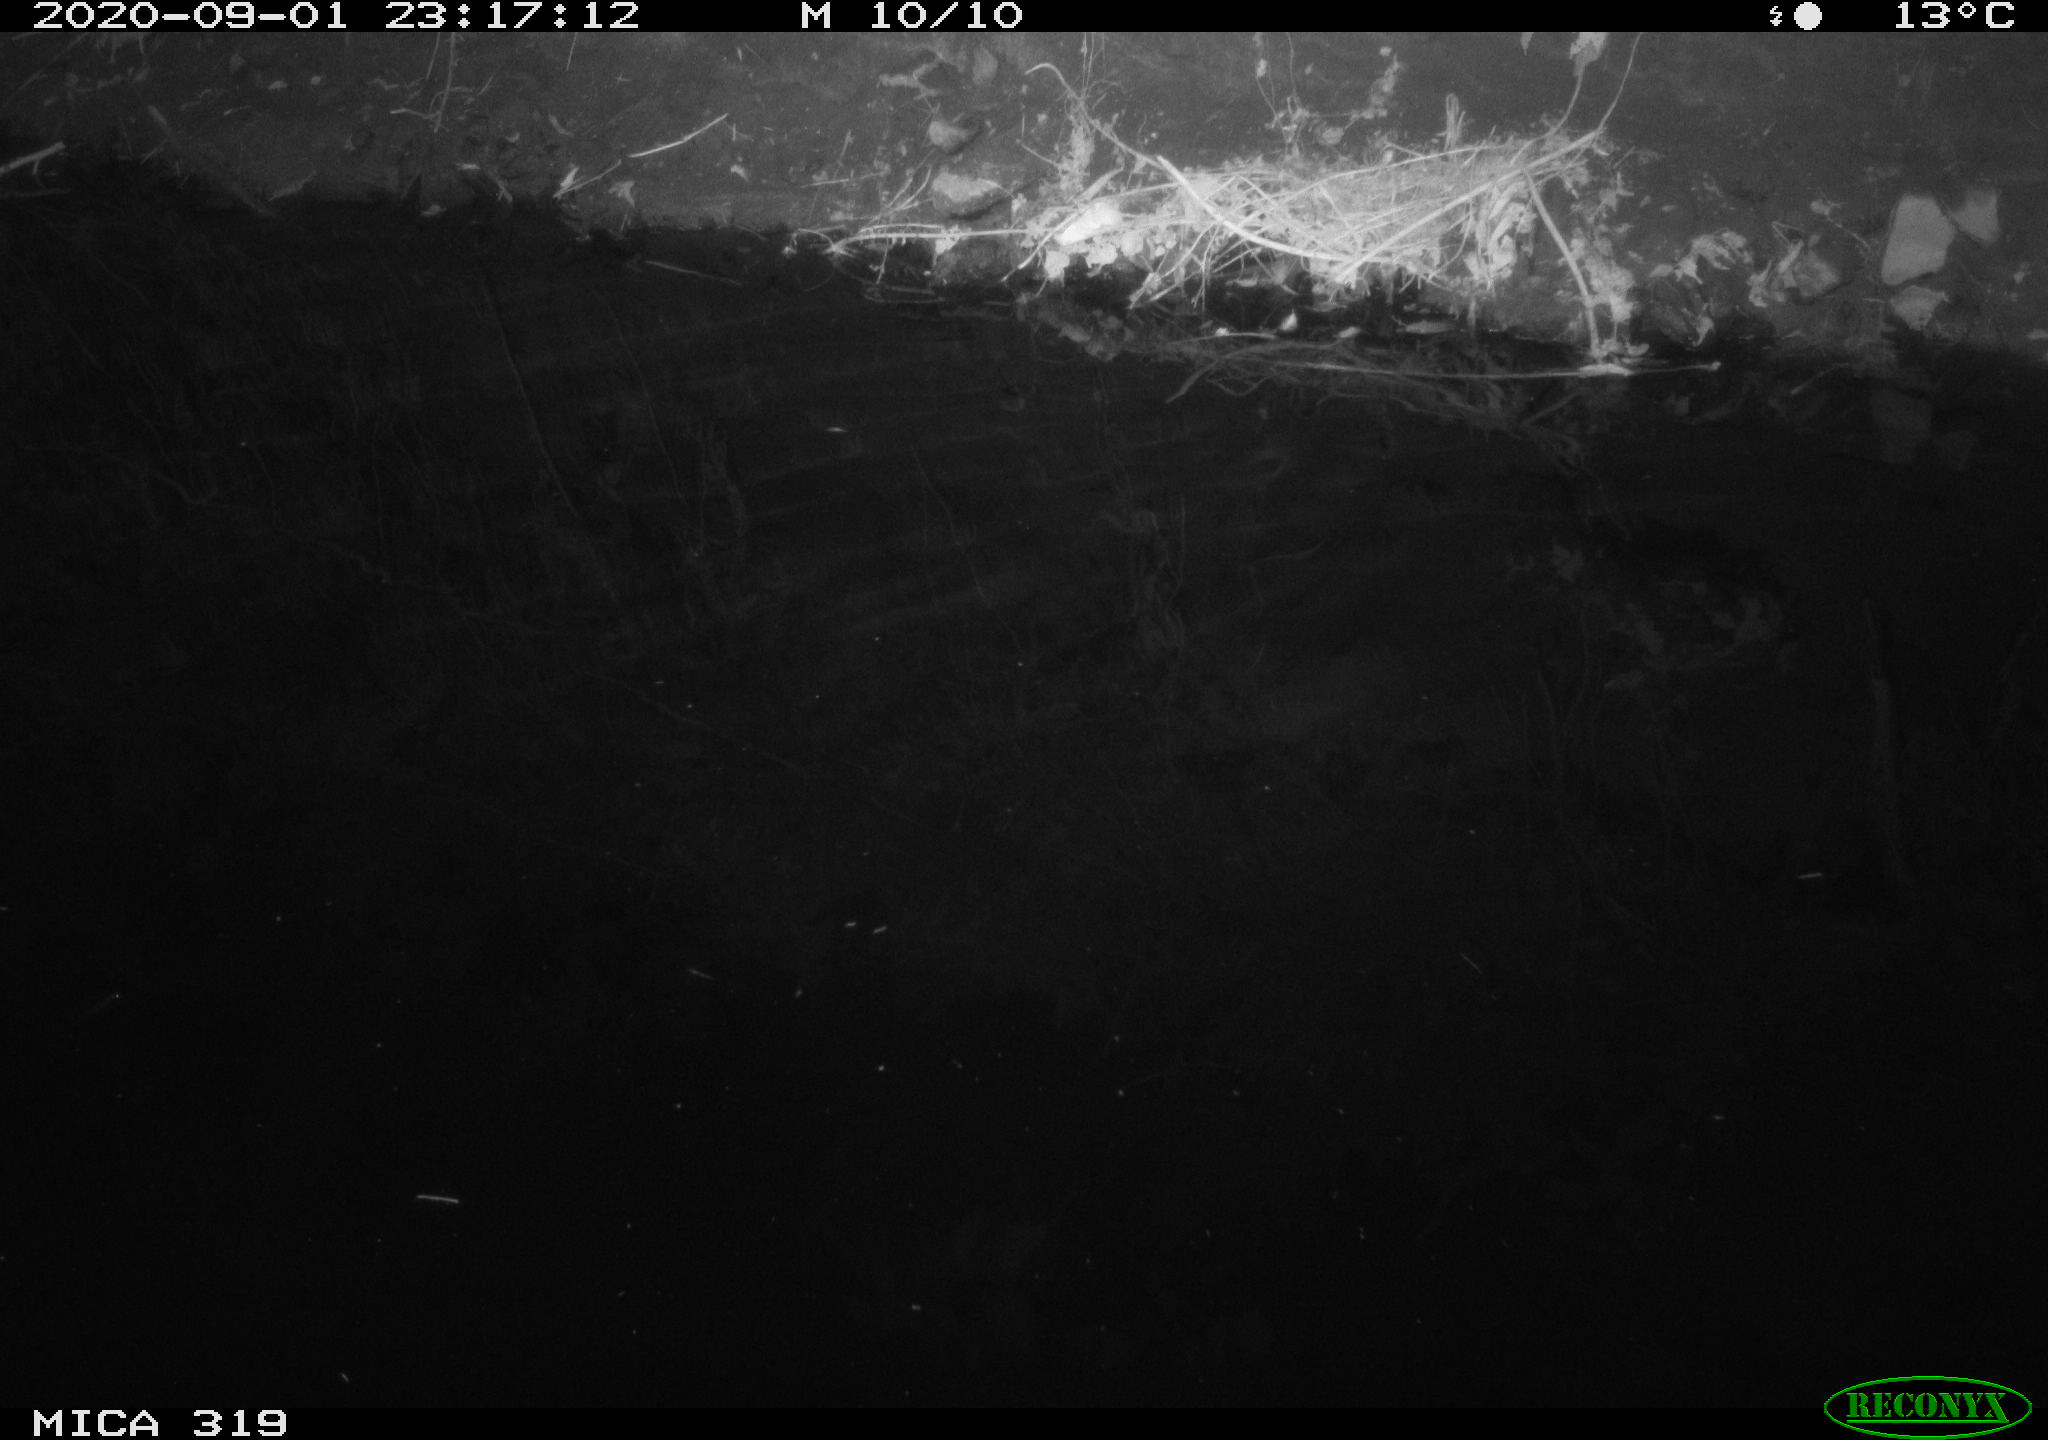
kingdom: Animalia
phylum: Chordata
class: Aves
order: Anseriformes
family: Anatidae
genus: Anas
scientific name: Anas platyrhynchos
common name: Mallard
